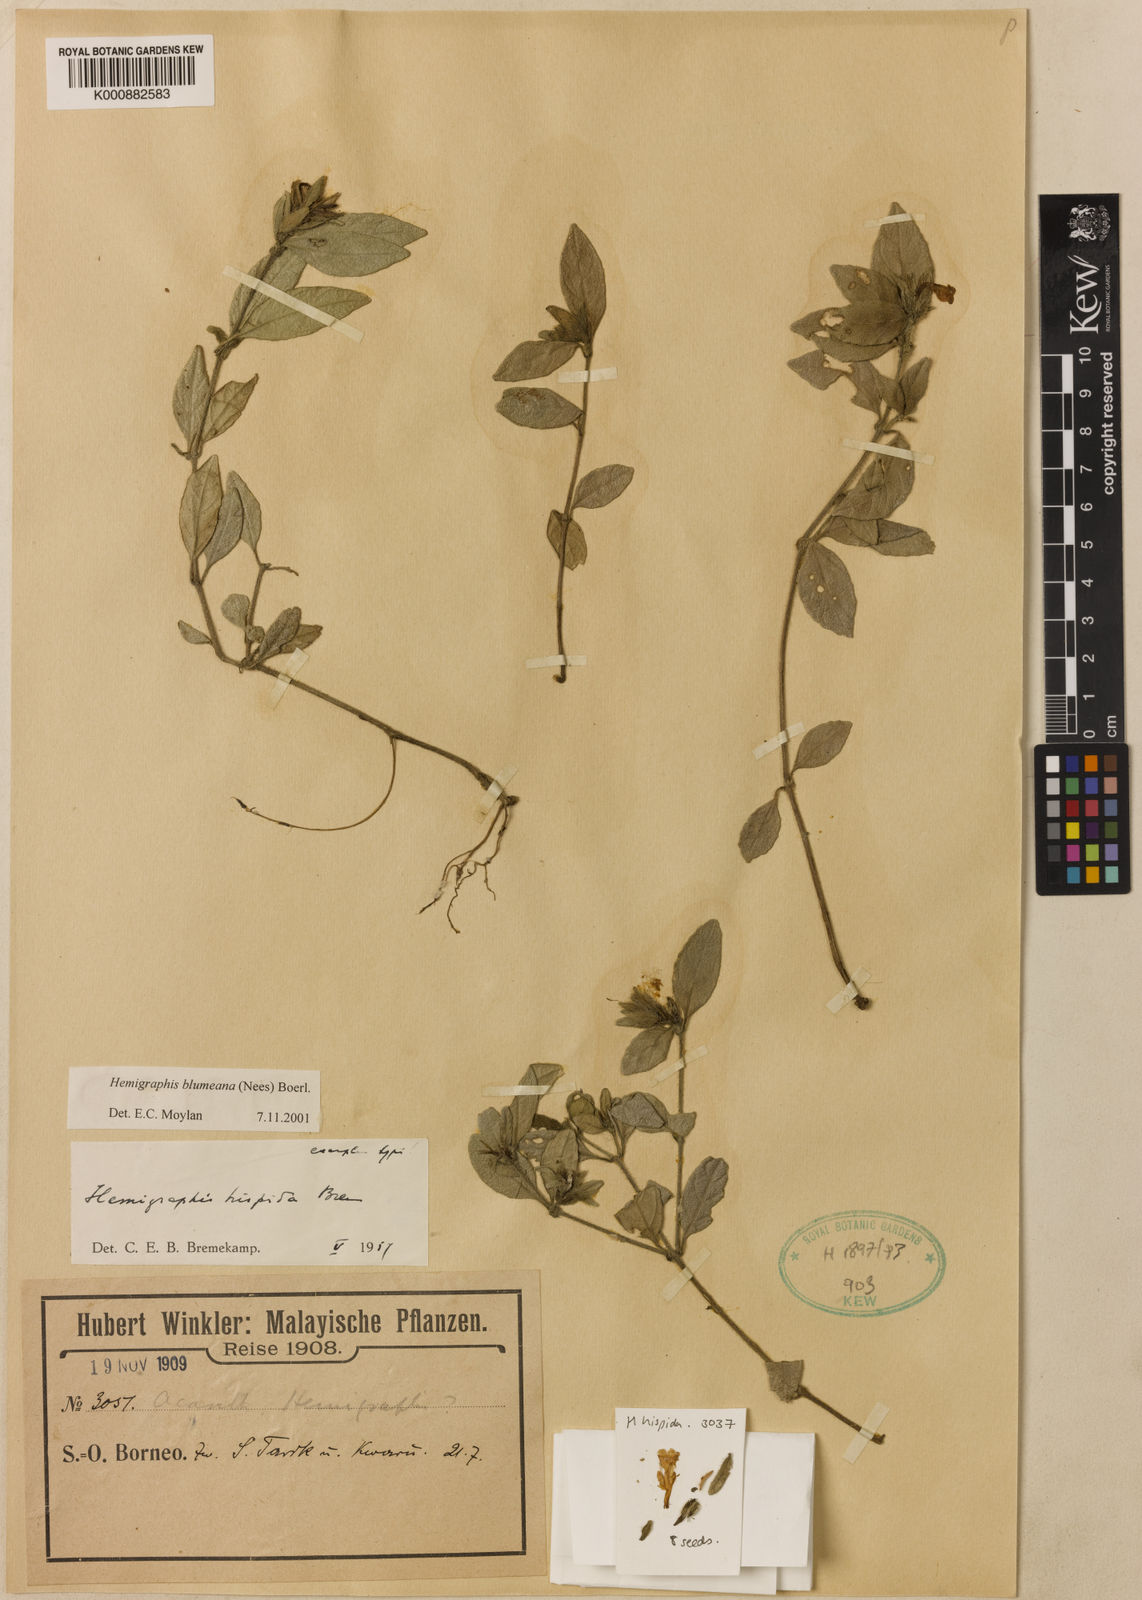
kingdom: Plantae
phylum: Tracheophyta
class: Magnoliopsida
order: Lamiales
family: Acanthaceae
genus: Strobilanthes
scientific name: Strobilanthes blumeana
